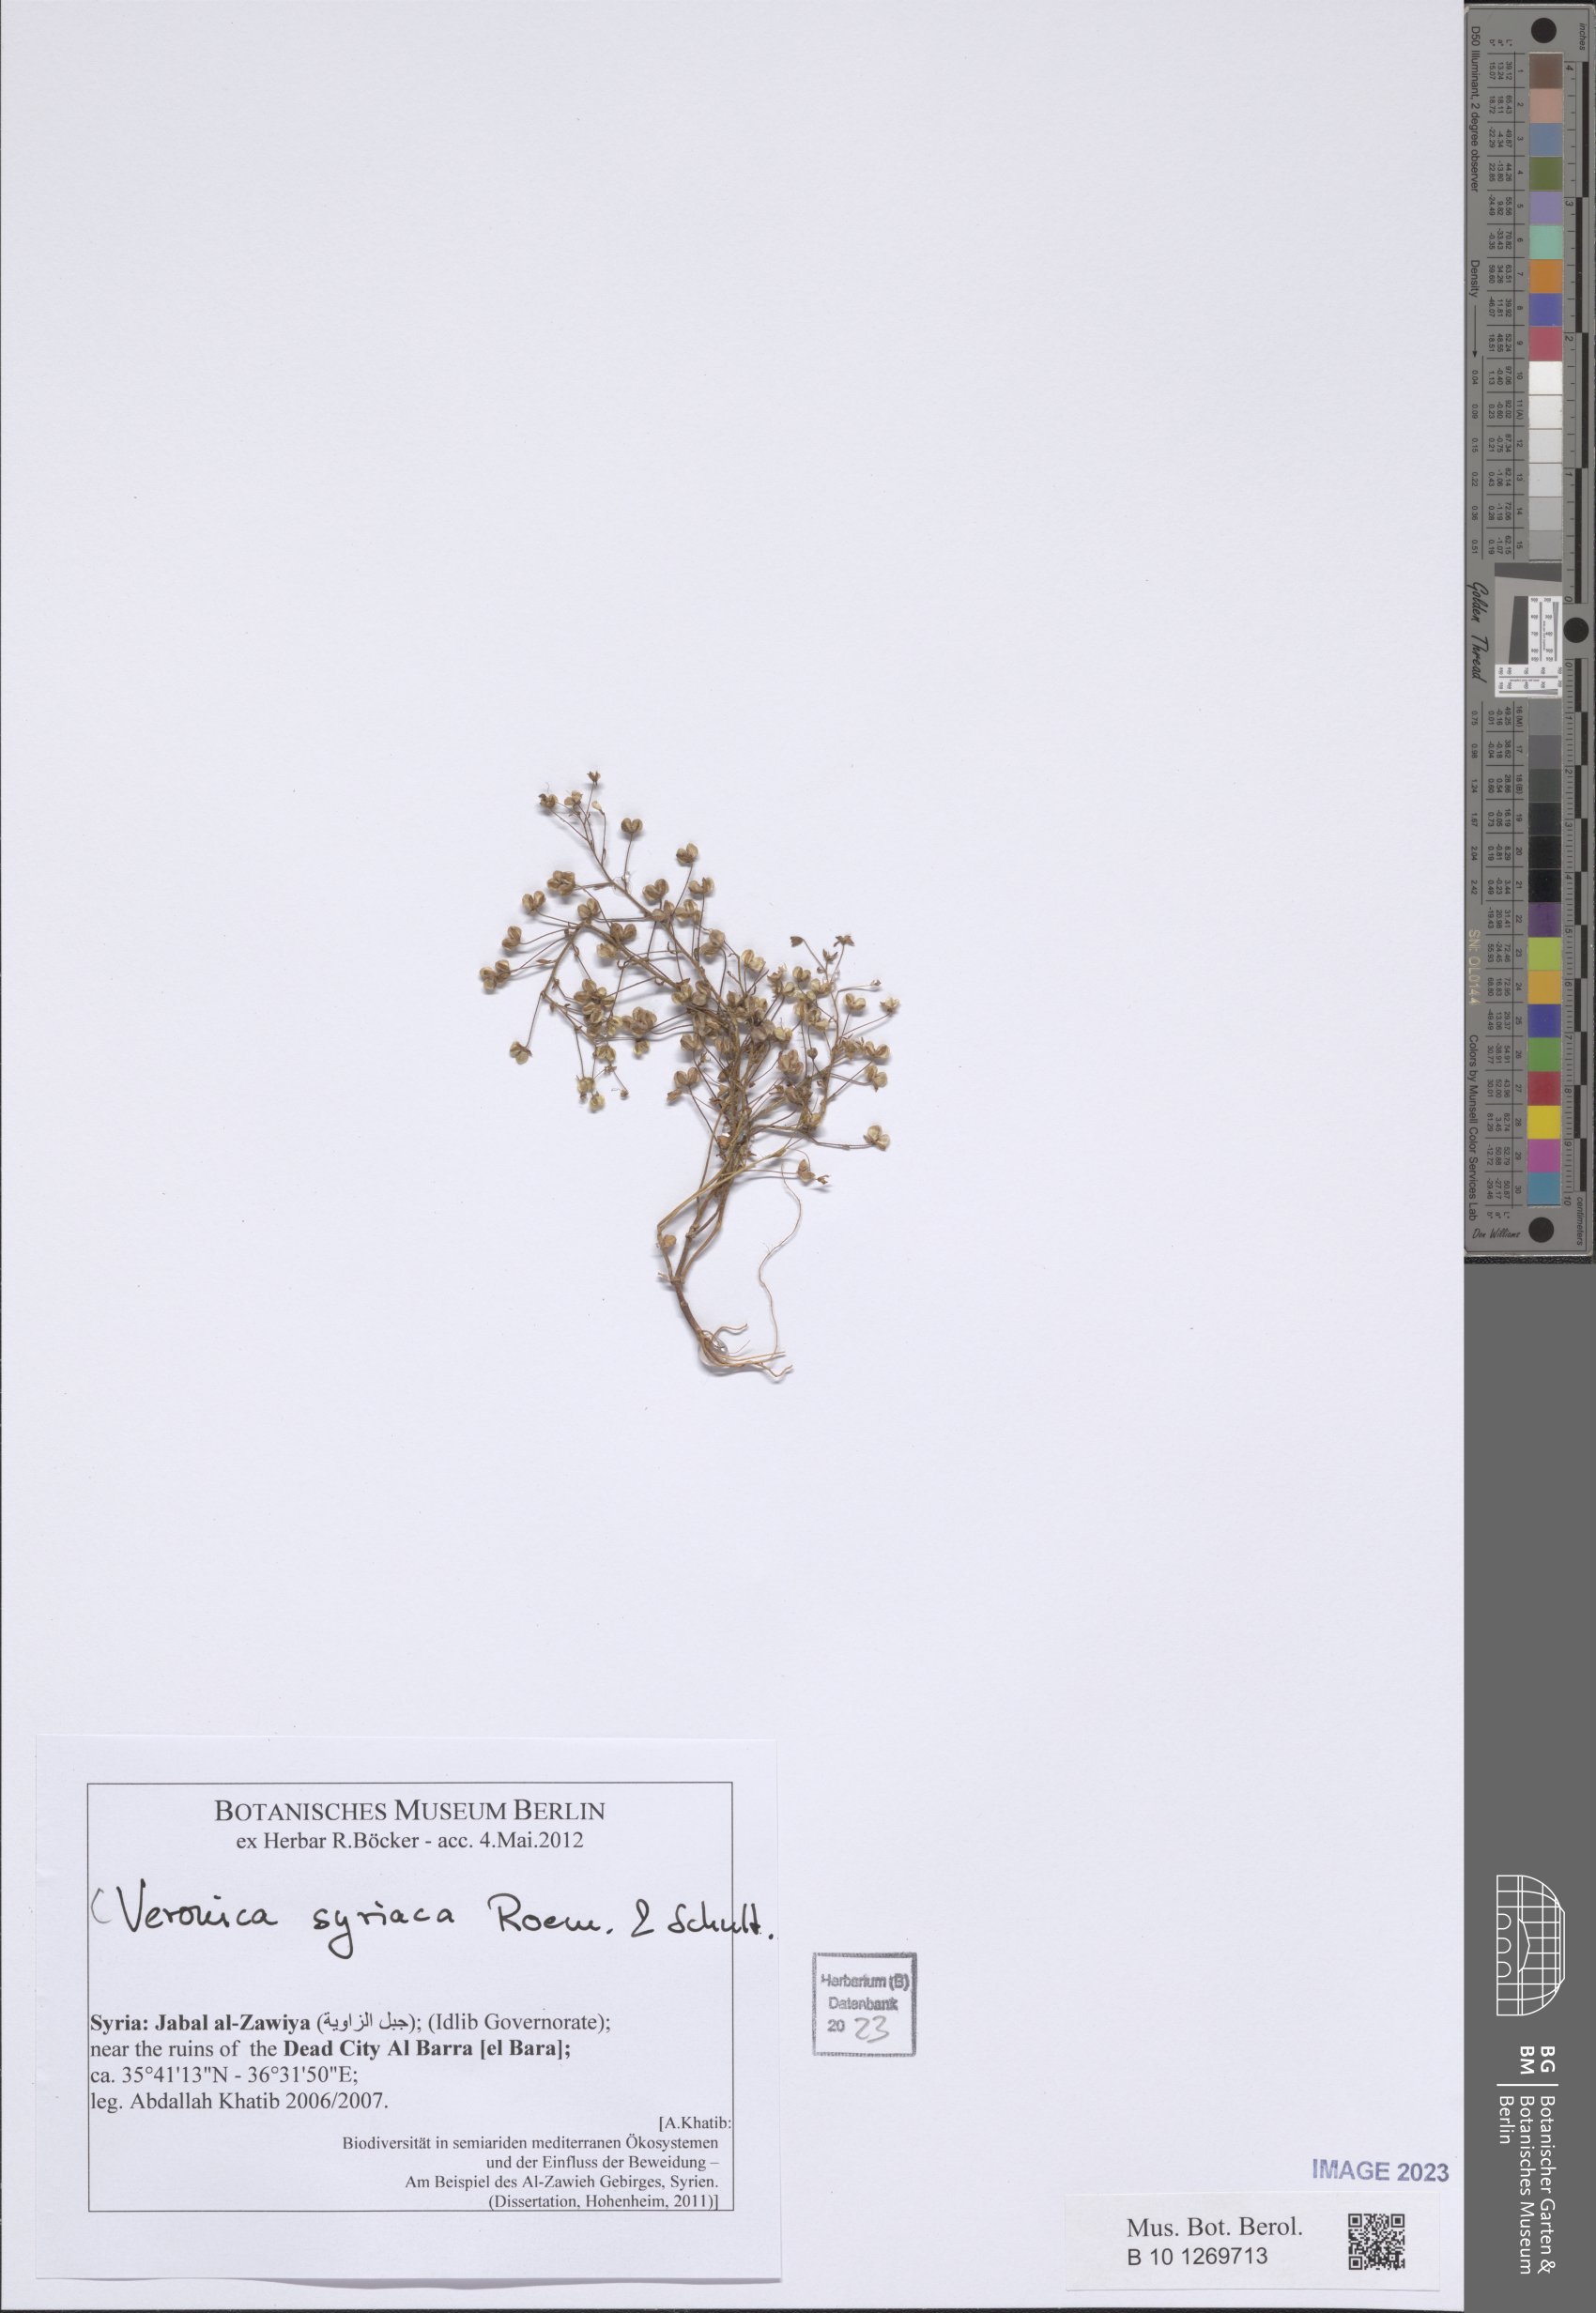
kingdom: Plantae
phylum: Tracheophyta
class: Magnoliopsida
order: Lamiales
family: Plantaginaceae
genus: Veronica
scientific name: Veronica syriaca
